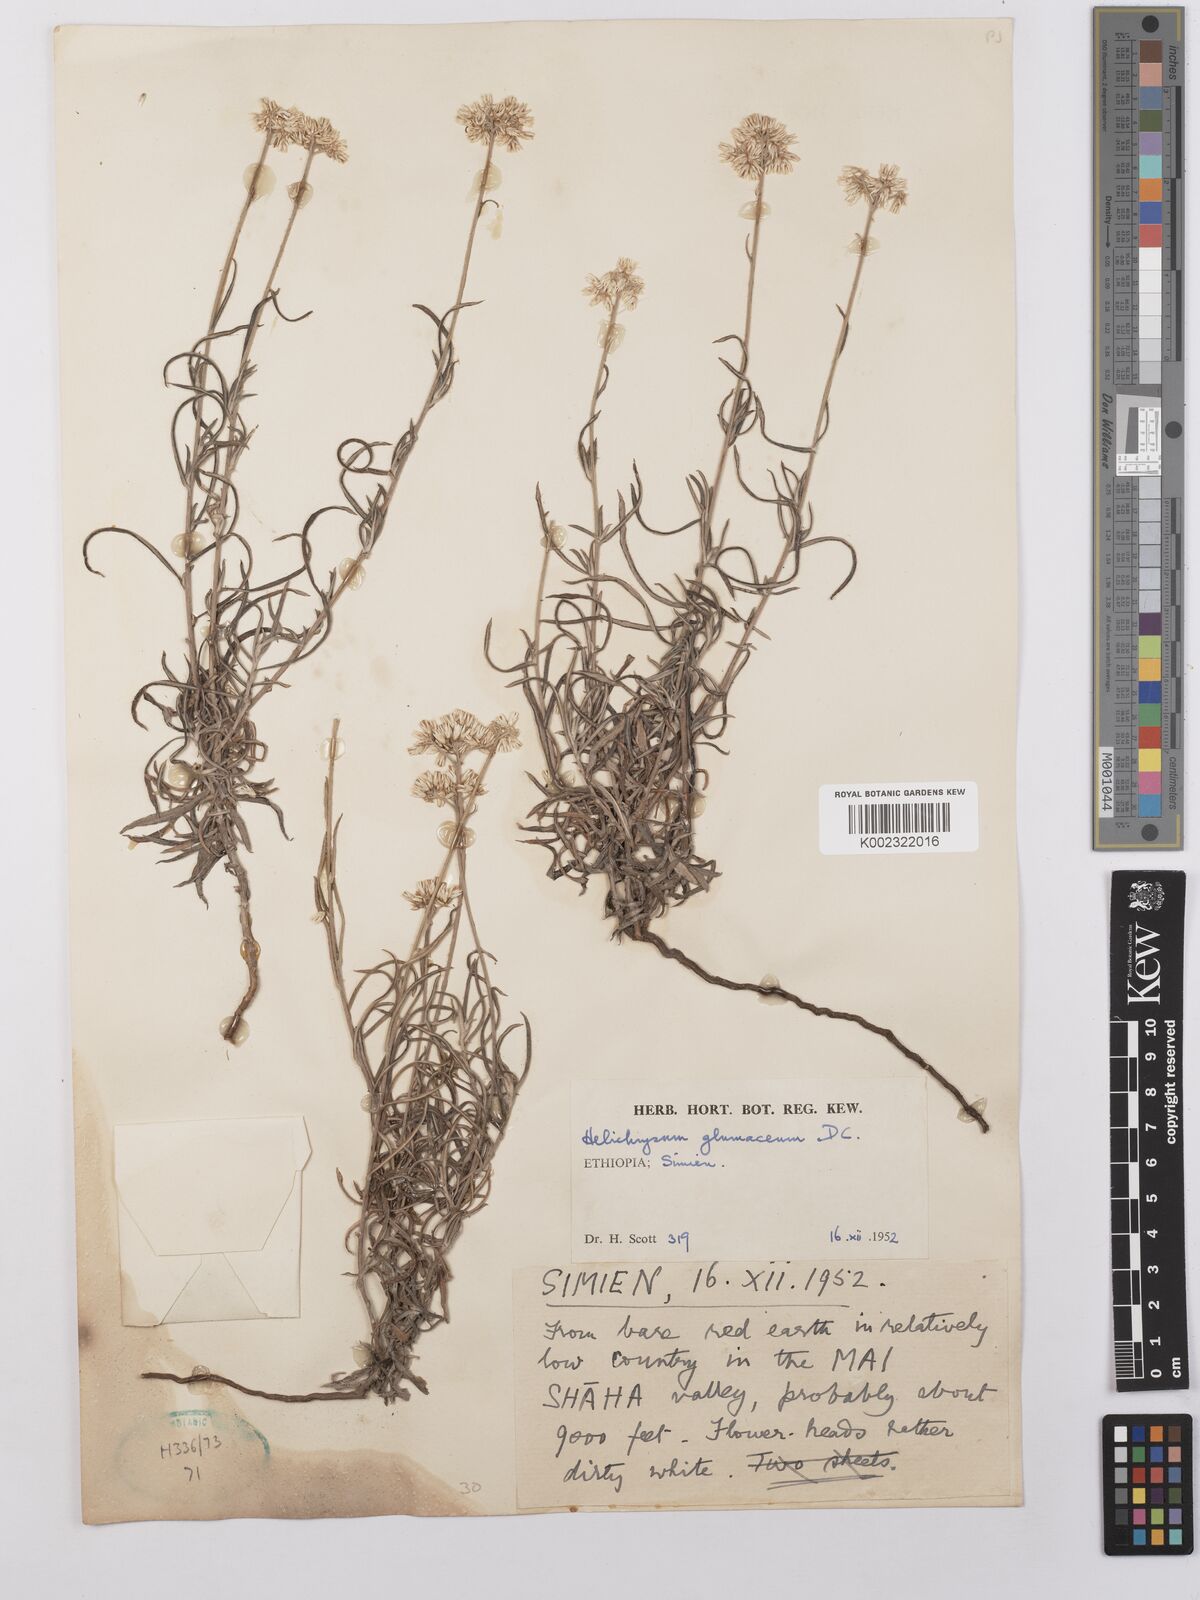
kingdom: Plantae
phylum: Tracheophyta
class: Magnoliopsida
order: Asterales
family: Asteraceae
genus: Helichrysum
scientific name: Helichrysum glumaceum
